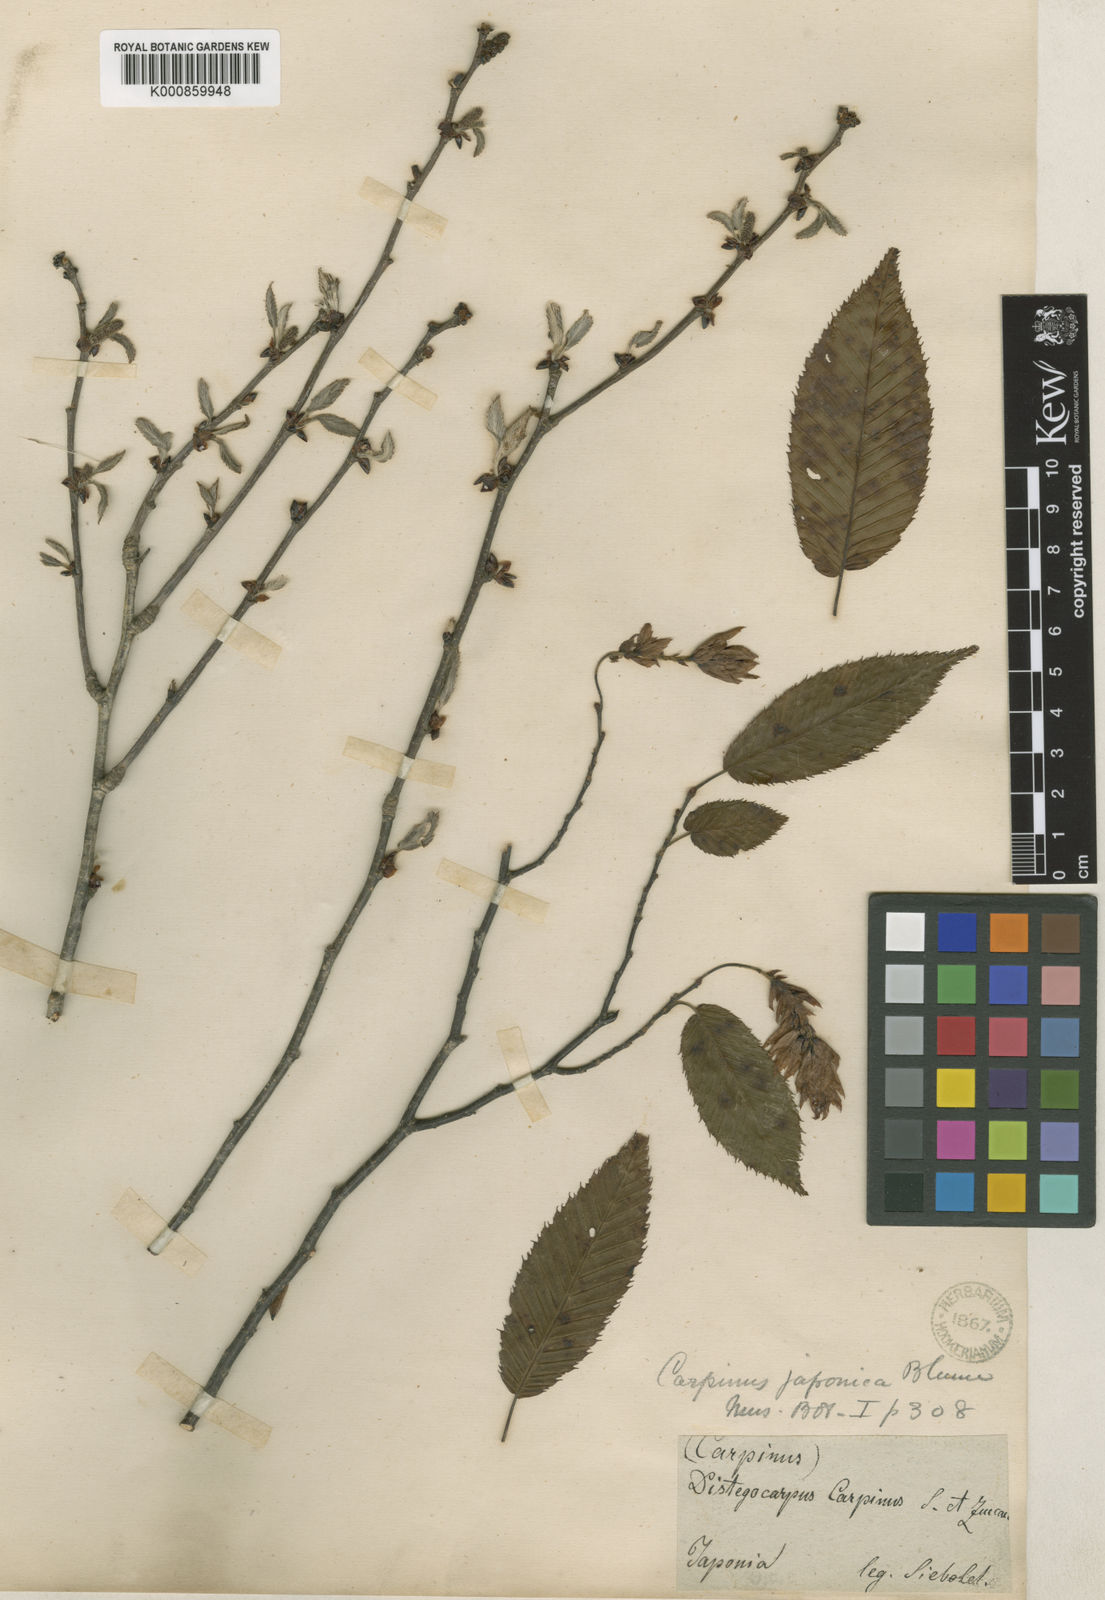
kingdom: Plantae
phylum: Tracheophyta
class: Magnoliopsida
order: Fagales
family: Betulaceae
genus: Carpinus
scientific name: Carpinus japonica
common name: Japanese hornbeam
